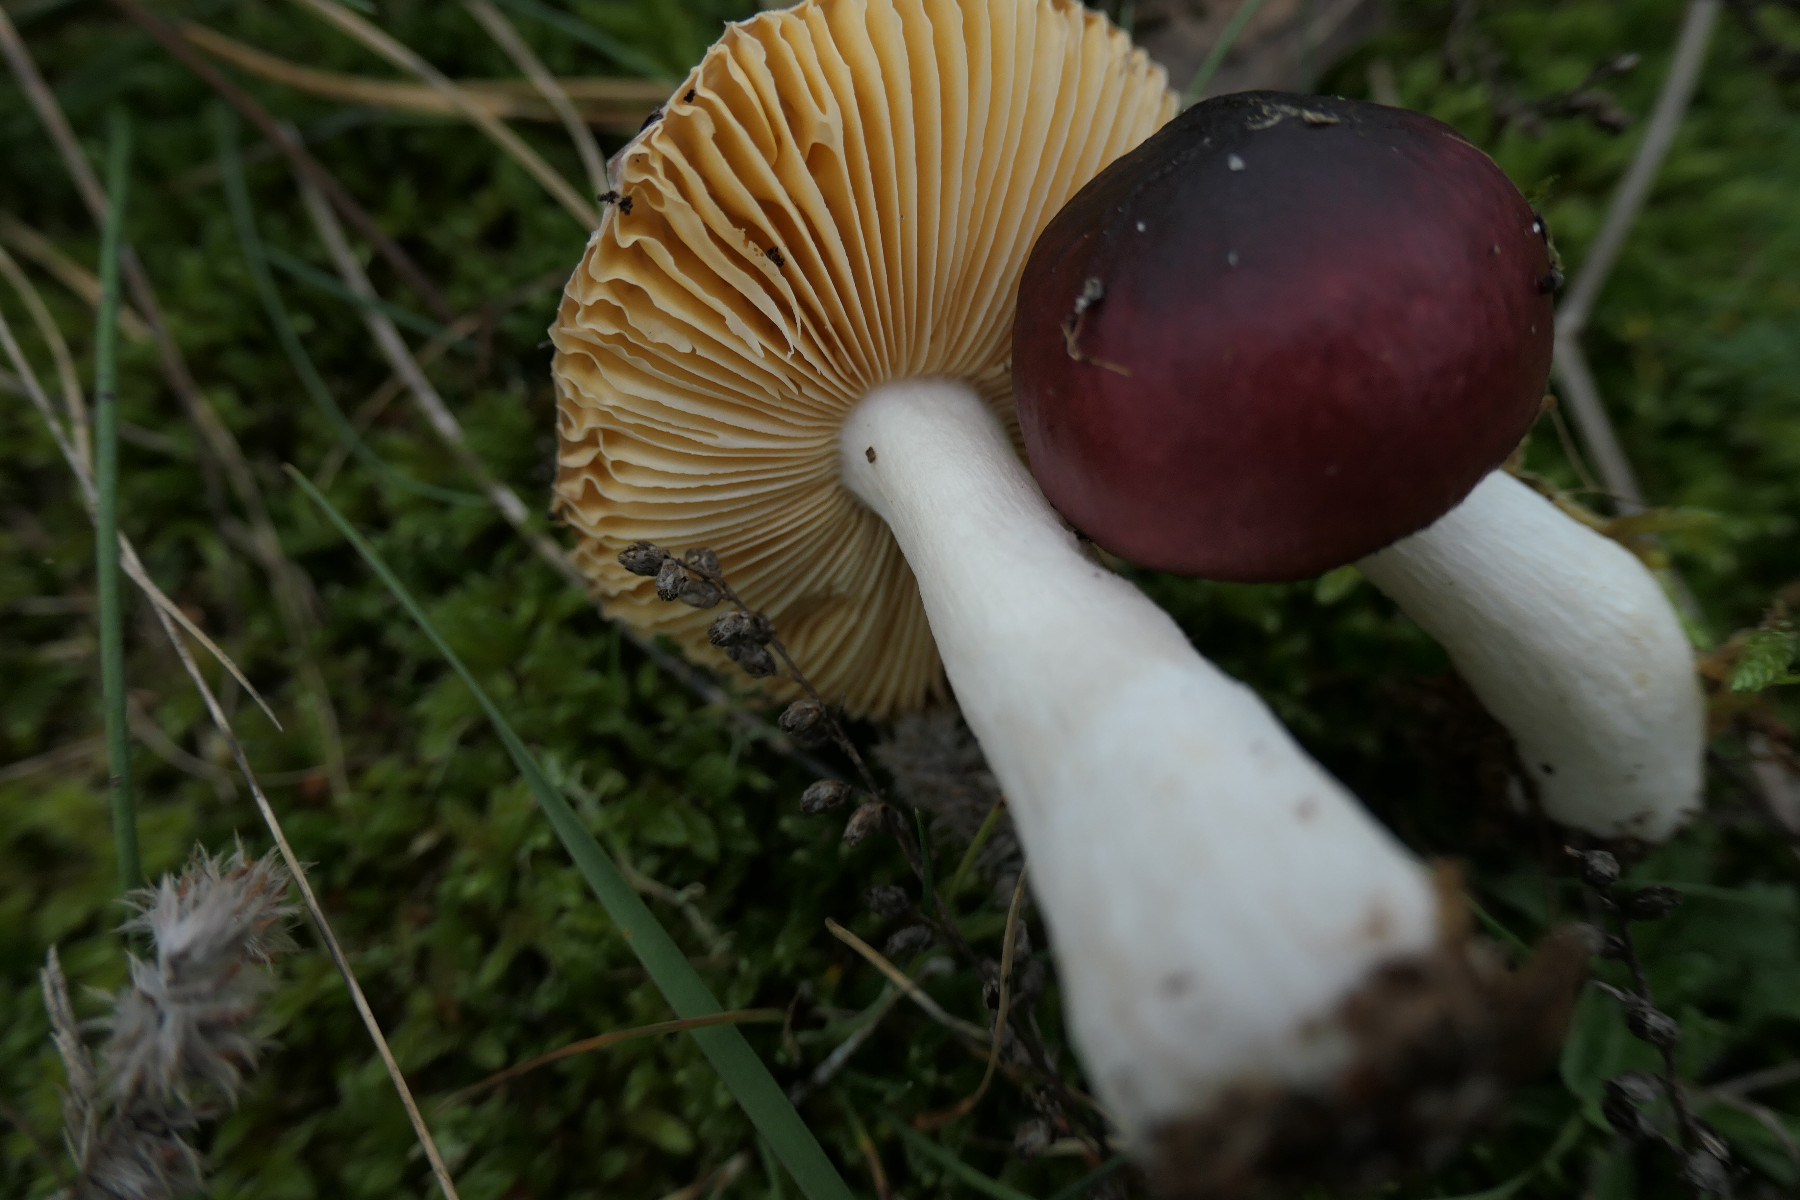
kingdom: Fungi
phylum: Basidiomycota
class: Agaricomycetes
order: Russulales
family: Russulaceae
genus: Russula
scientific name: Russula cessans
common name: fyrre-skørhat
